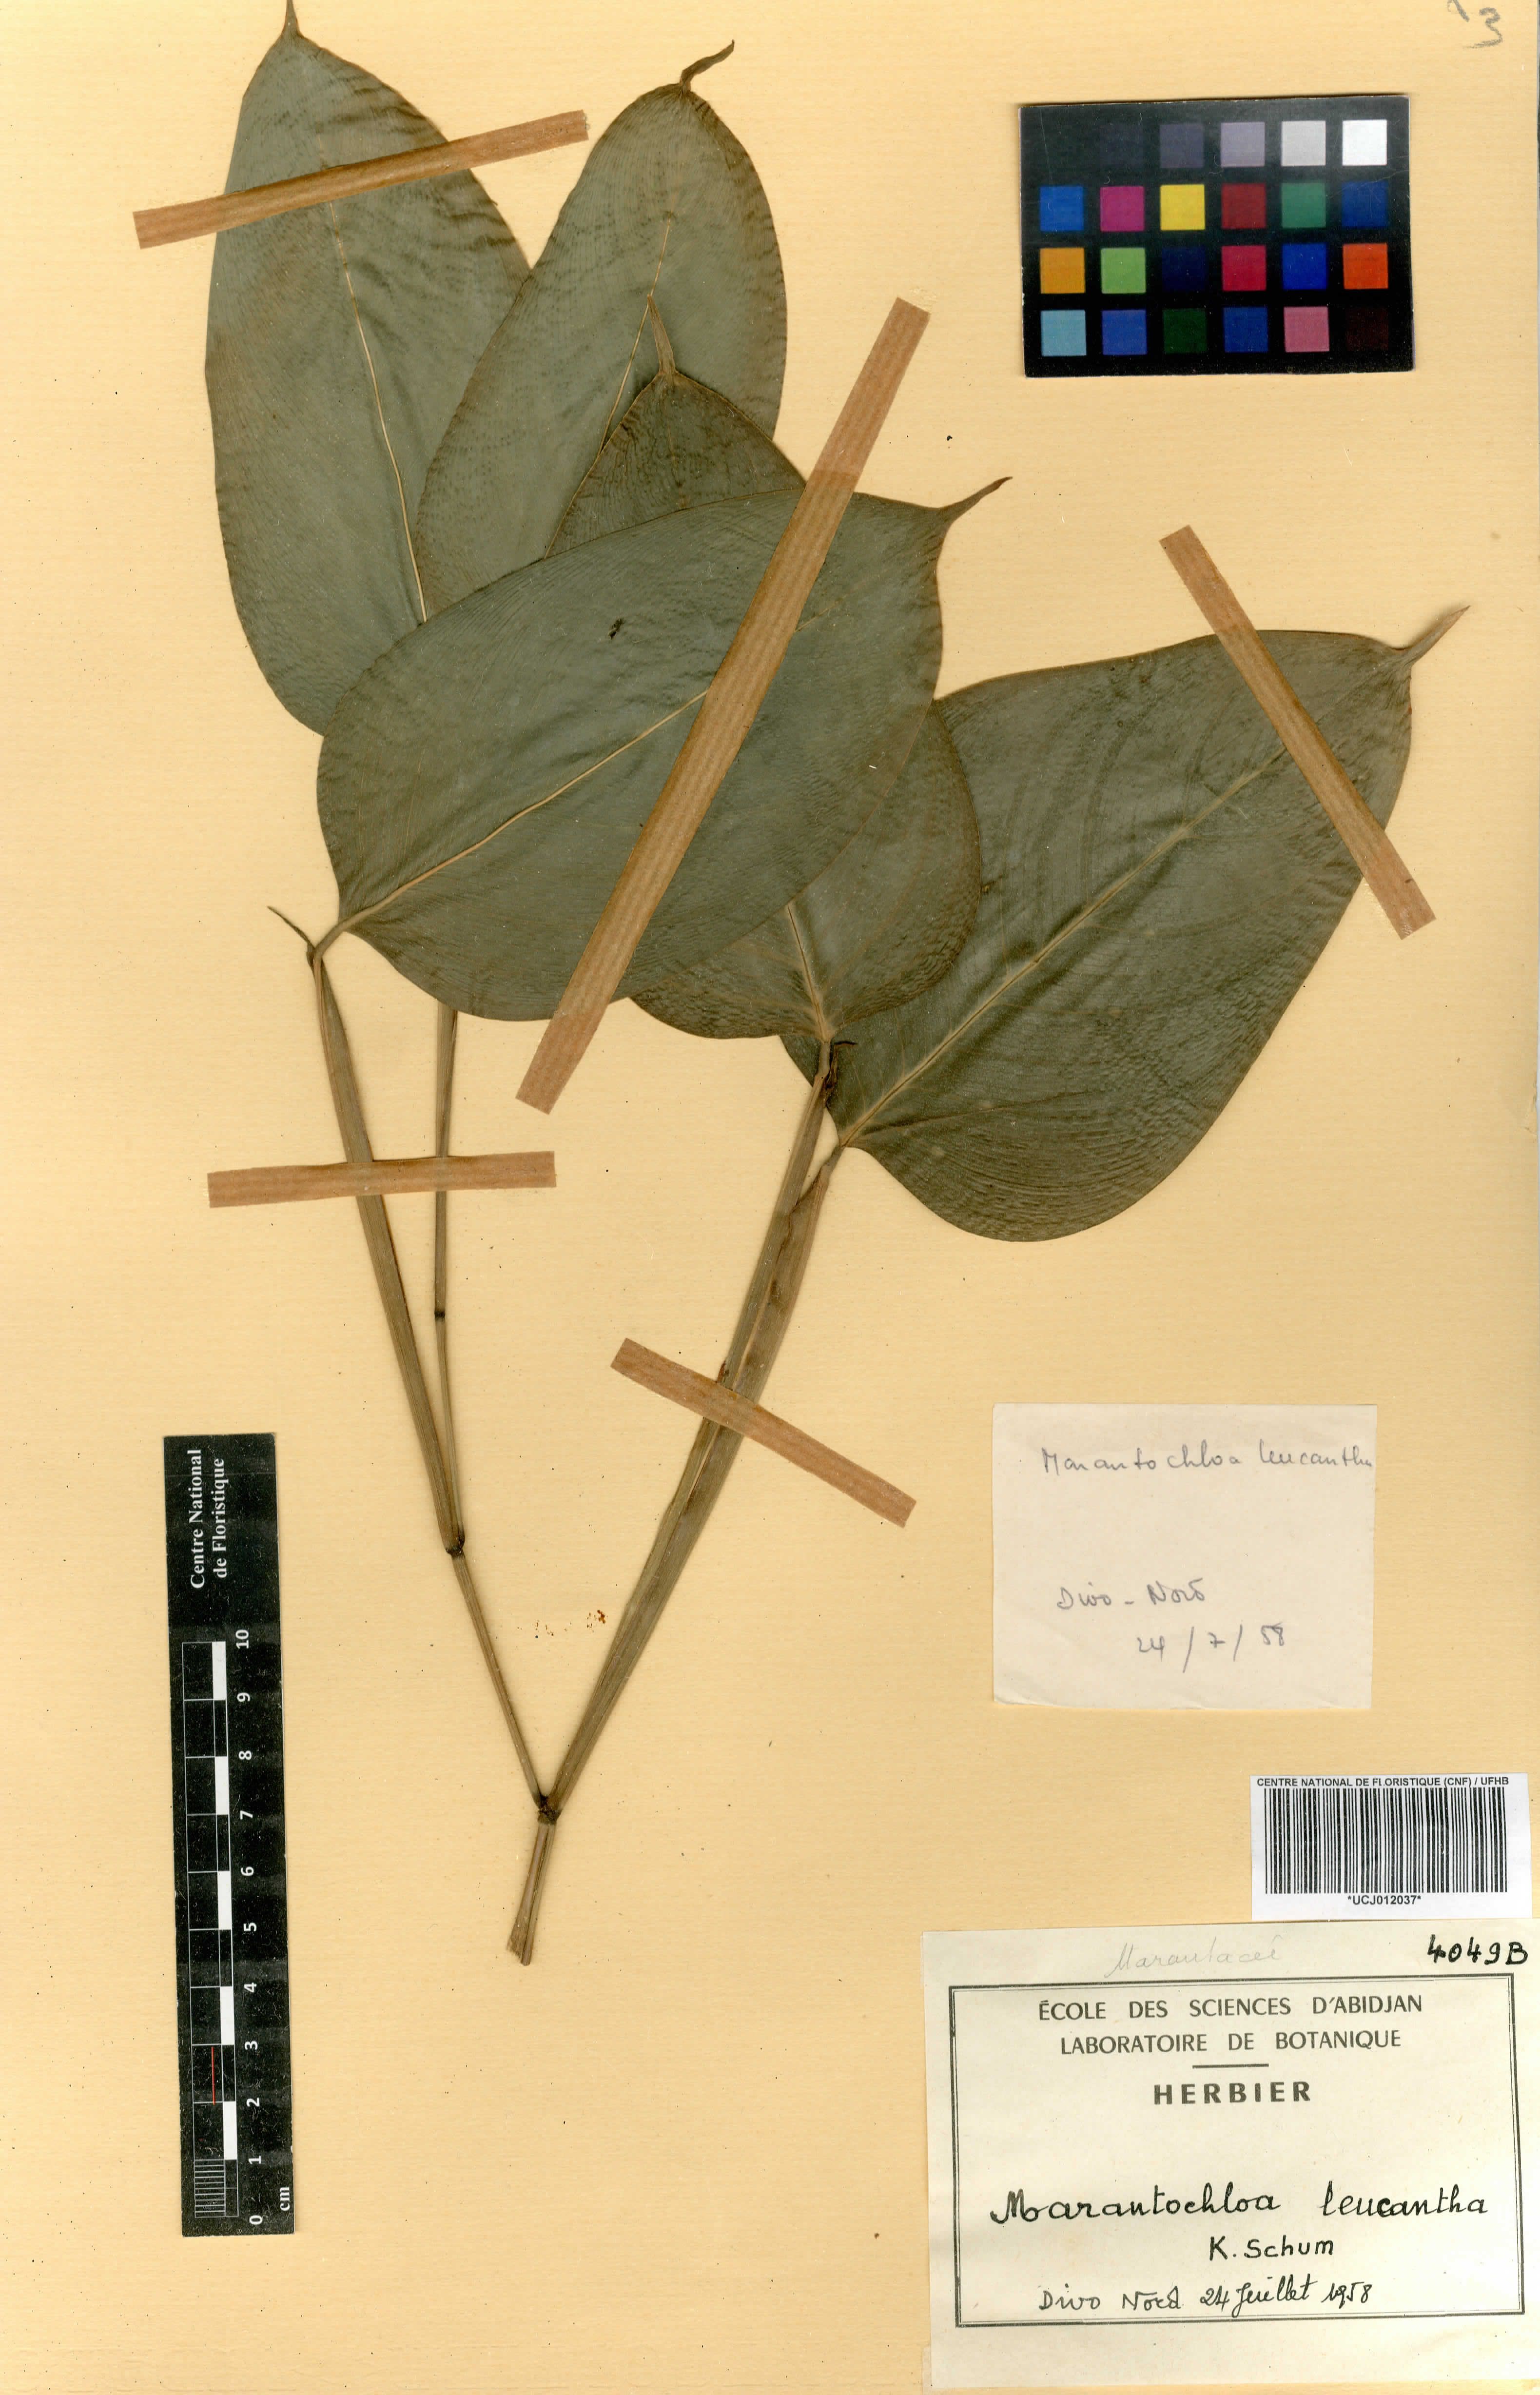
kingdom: Plantae
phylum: Tracheophyta
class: Liliopsida
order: Zingiberales
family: Marantaceae
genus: Marantochloa
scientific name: Marantochloa leucantha
